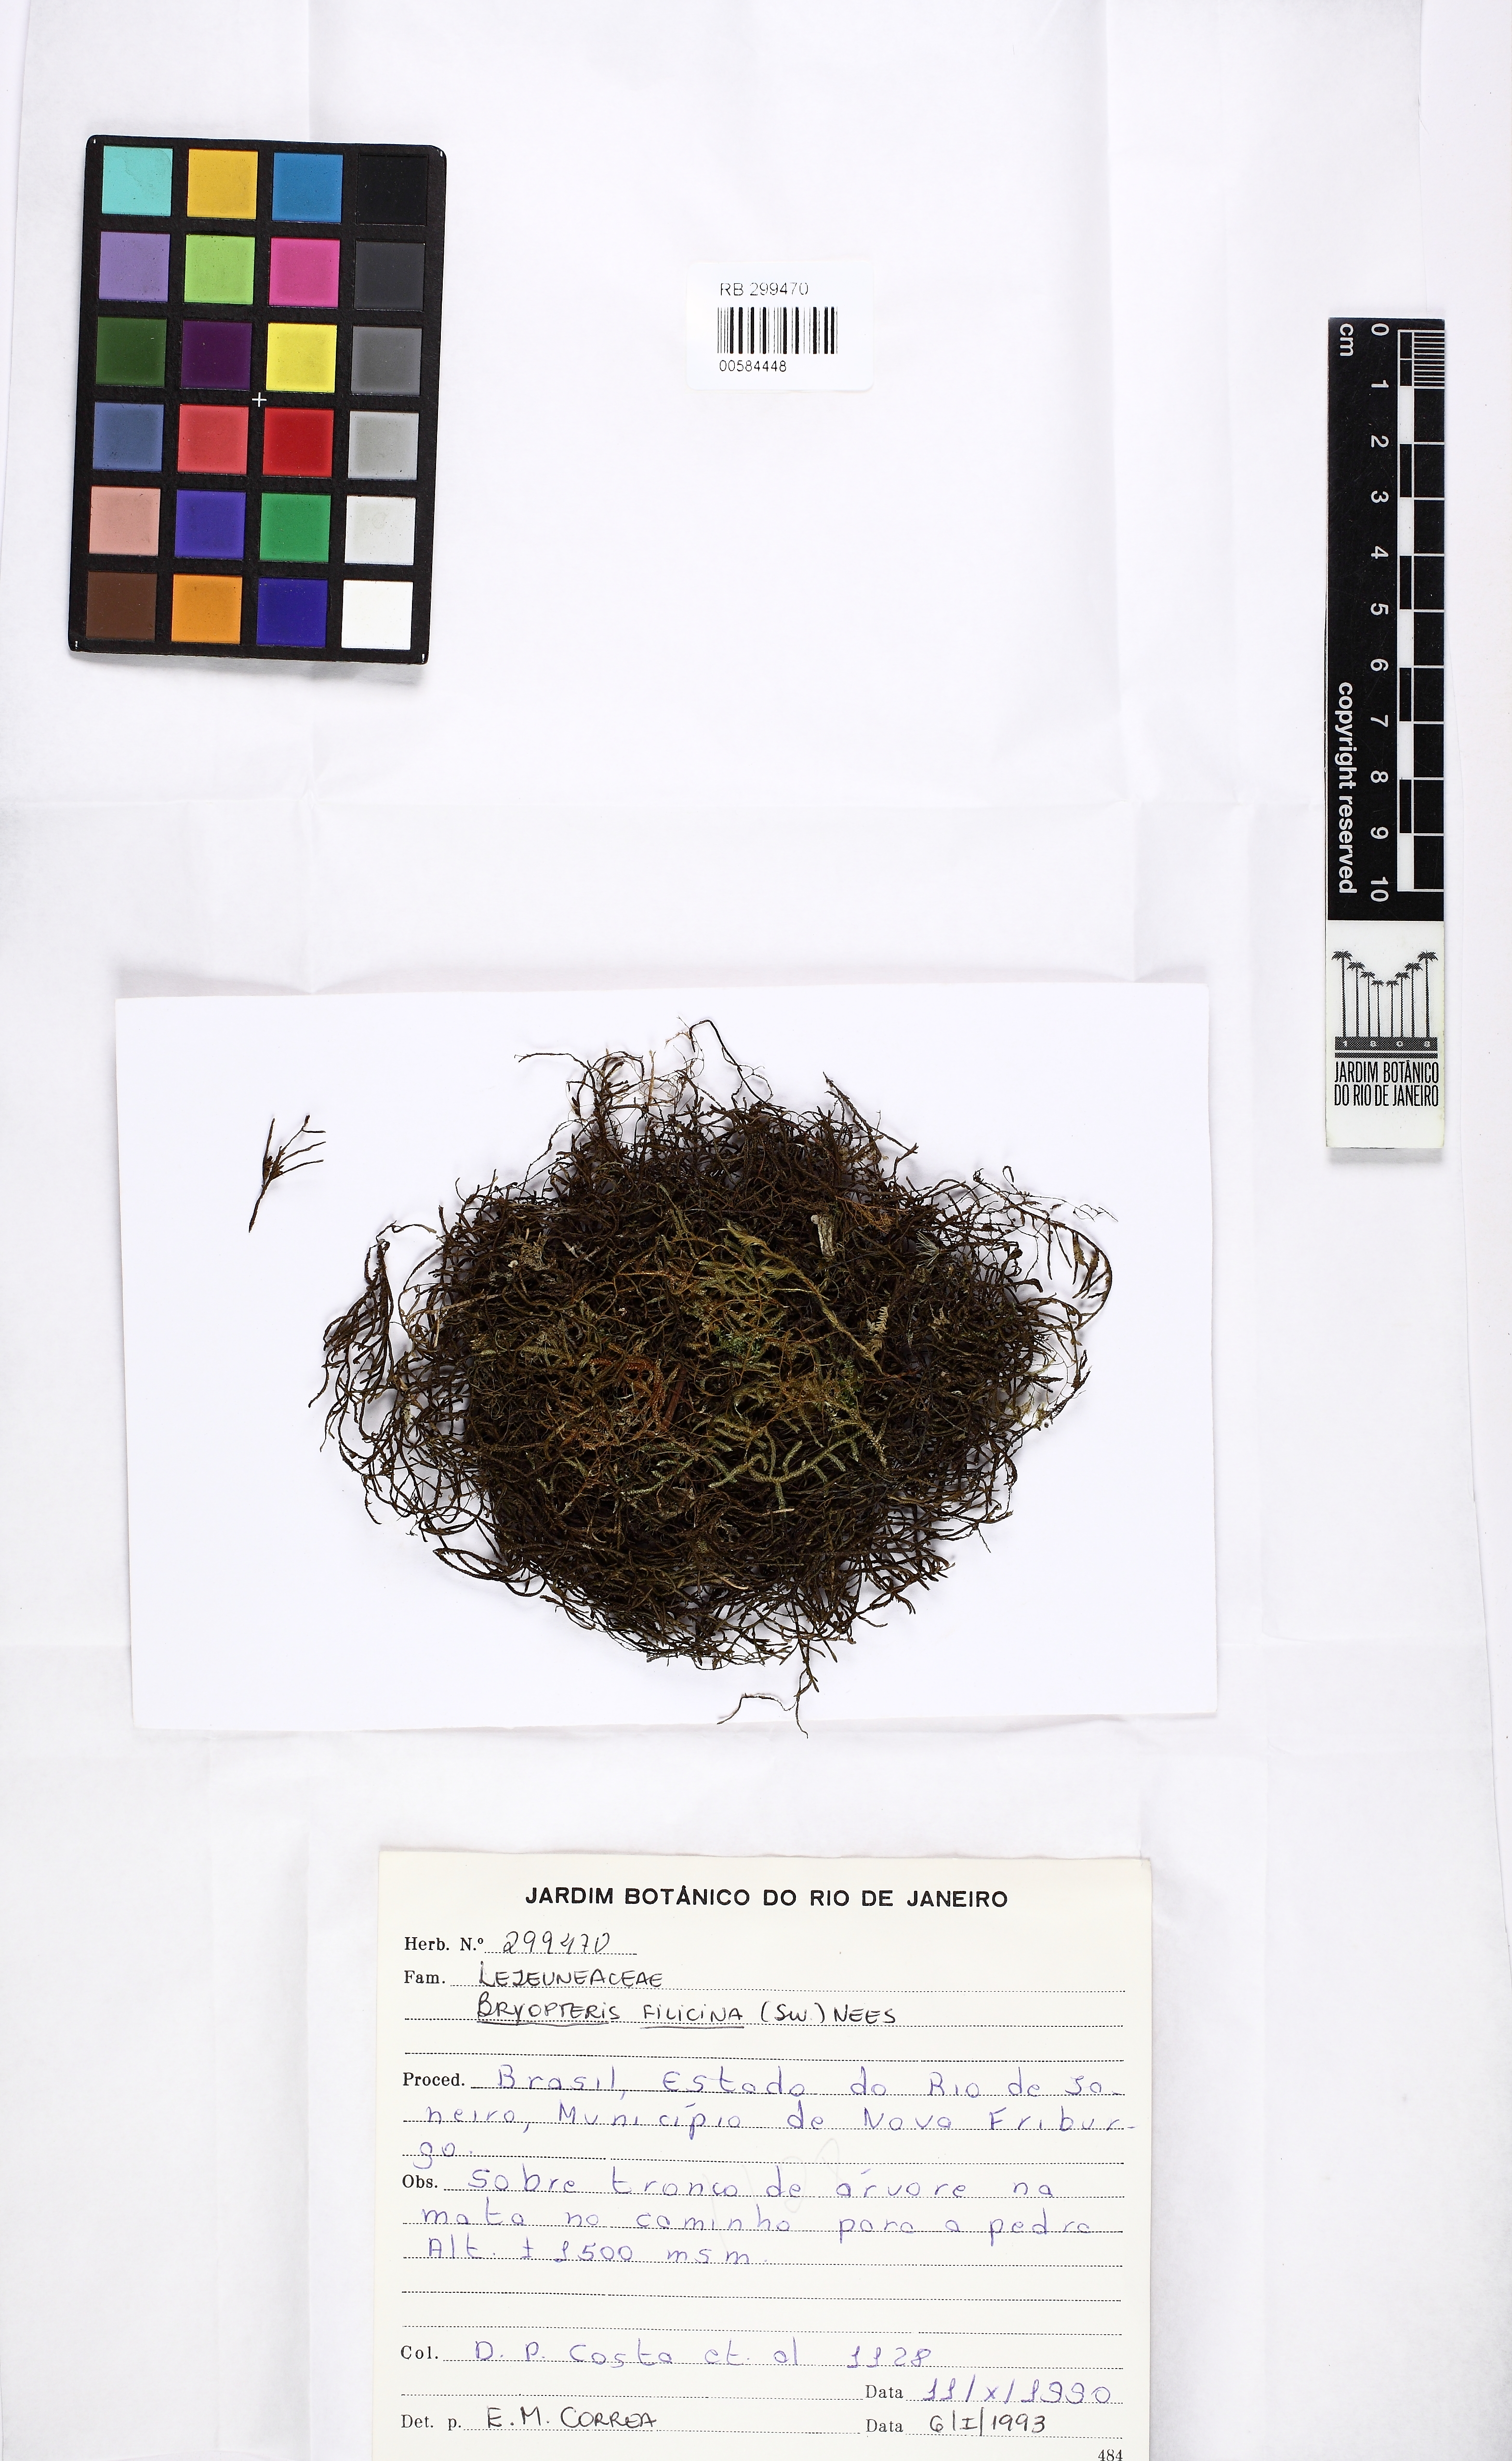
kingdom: Plantae
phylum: Marchantiophyta
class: Jungermanniopsida
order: Porellales
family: Lejeuneaceae
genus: Bryopteris
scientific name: Bryopteris filicina
